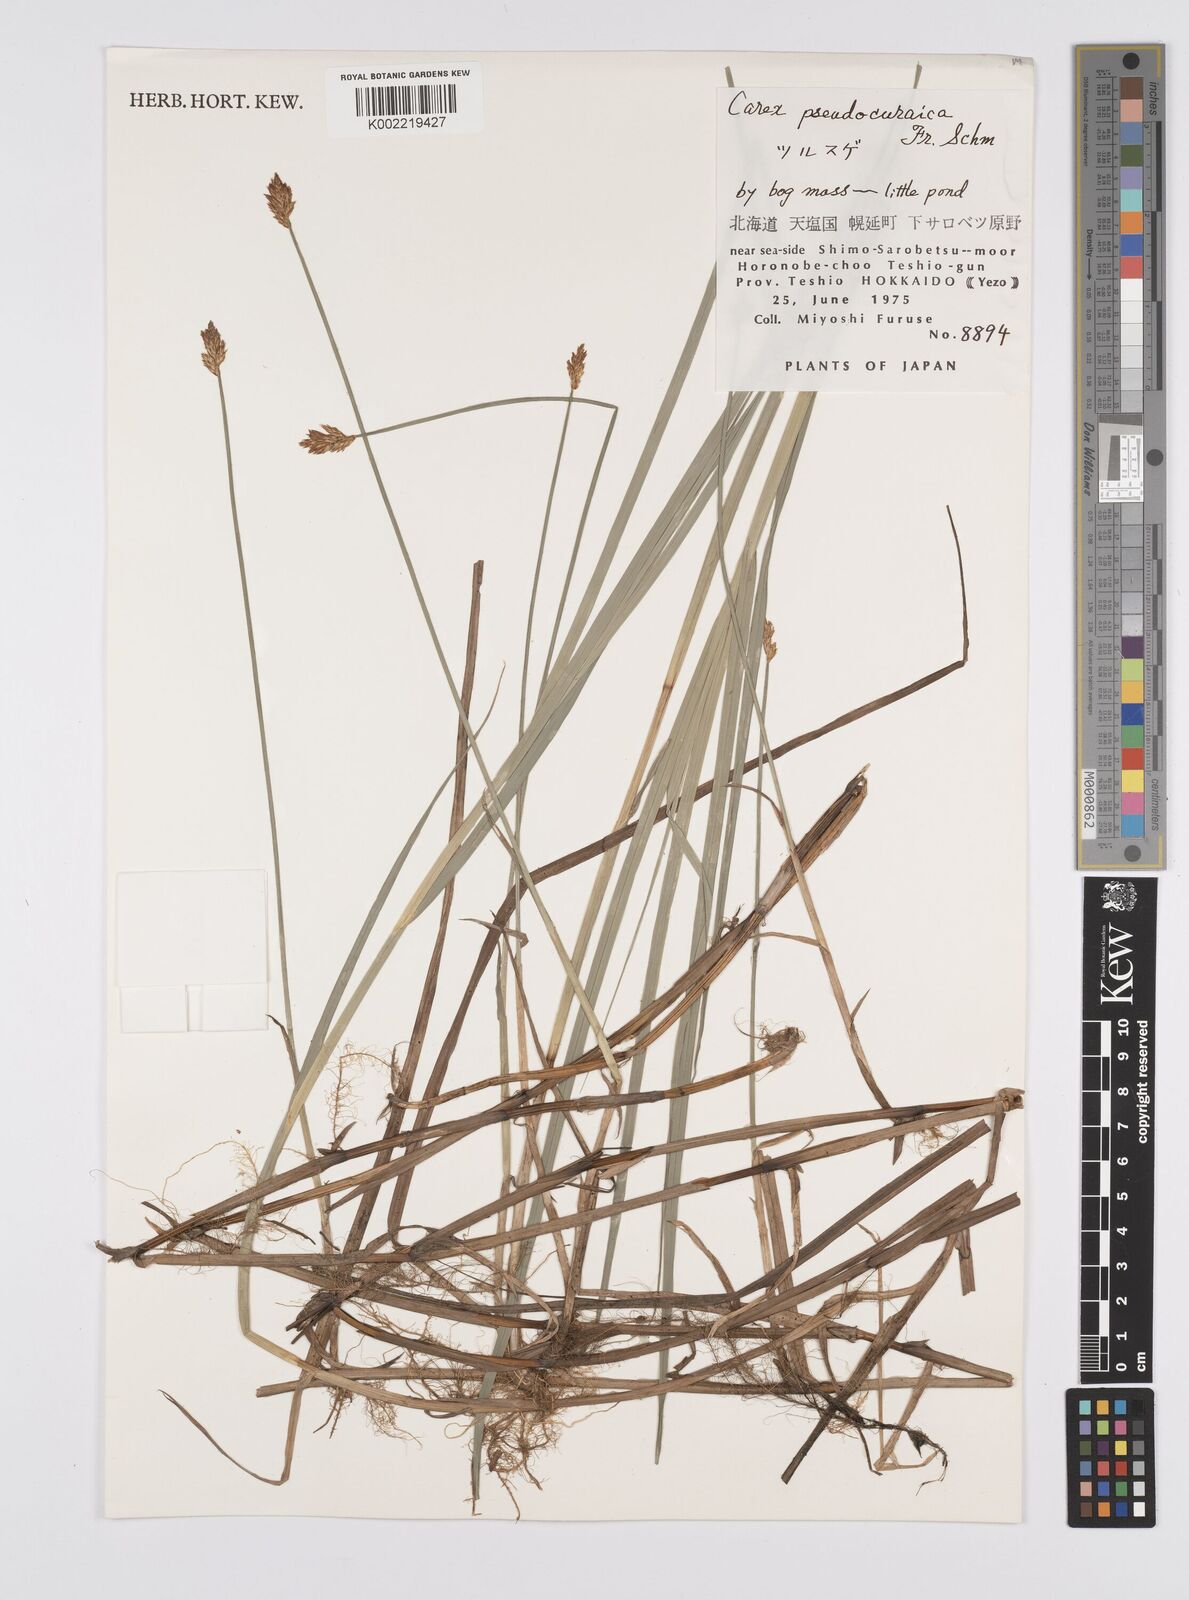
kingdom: Plantae
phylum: Tracheophyta
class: Liliopsida
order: Poales
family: Cyperaceae
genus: Carex
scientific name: Carex pseudocuraica
